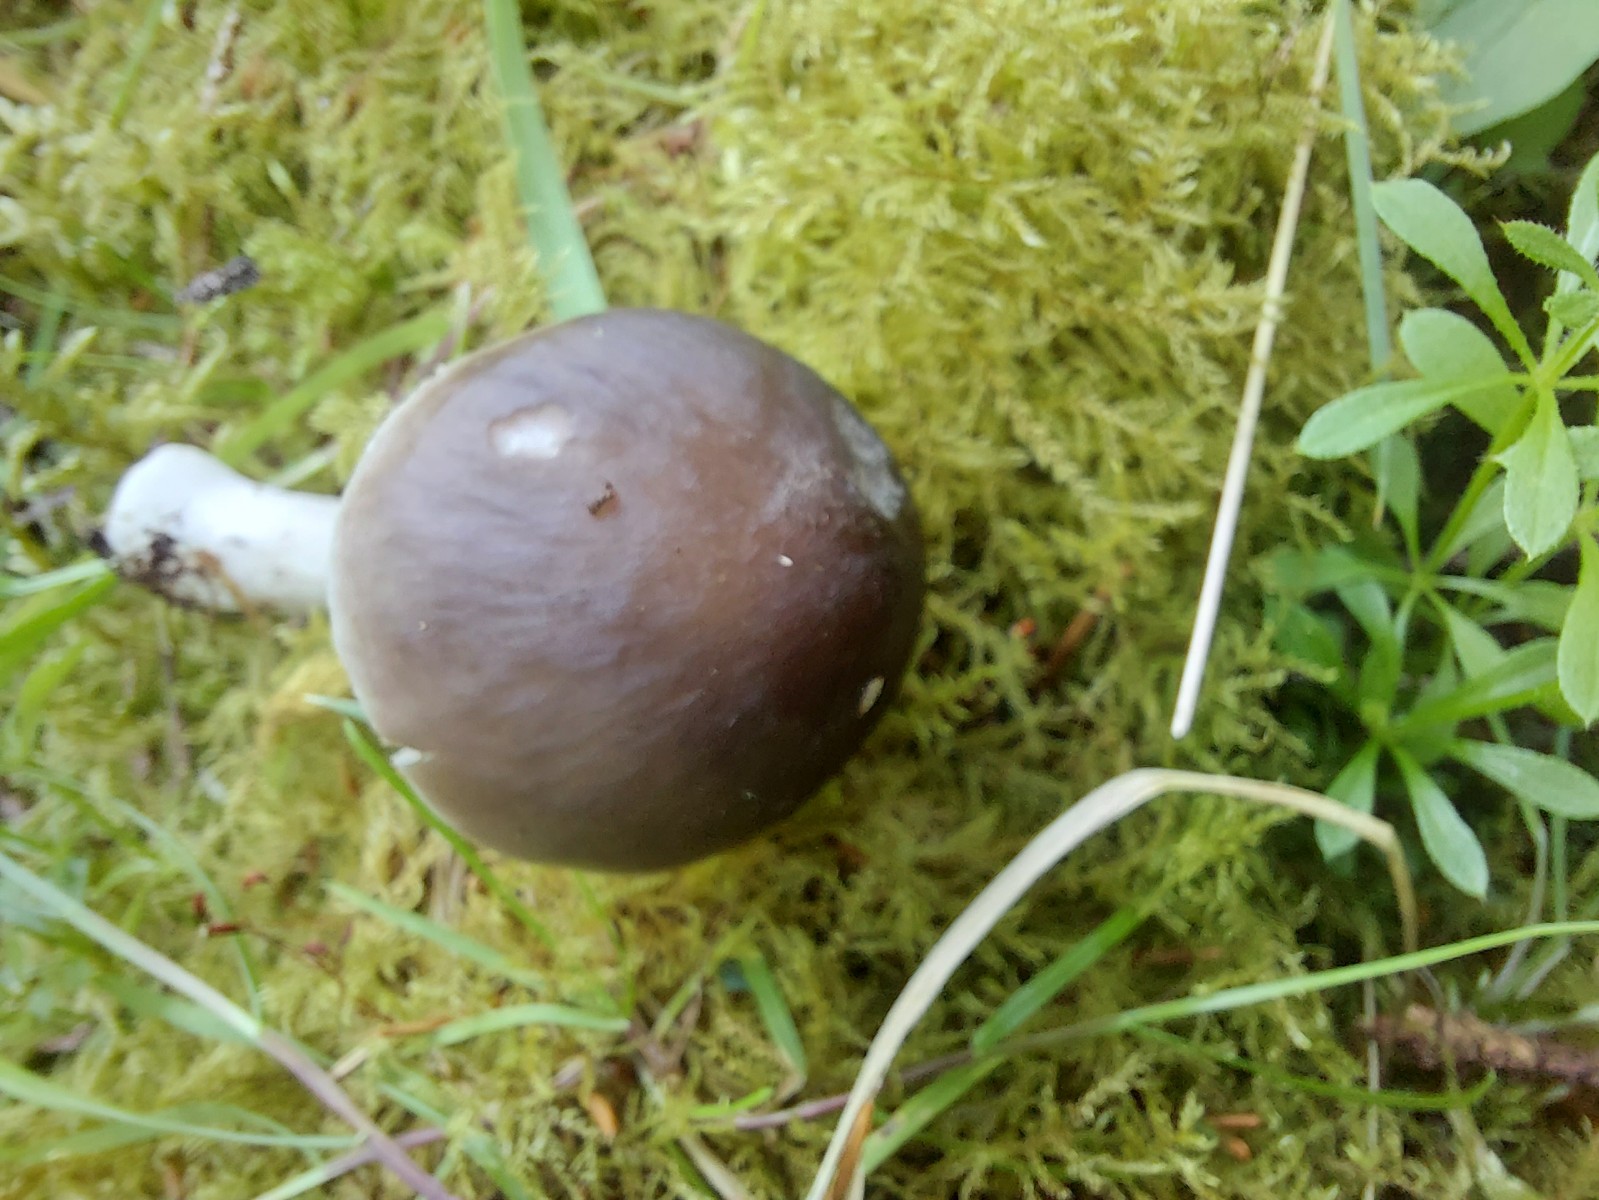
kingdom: Fungi
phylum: Basidiomycota
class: Agaricomycetes
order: Agaricales
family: Pluteaceae
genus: Pluteus
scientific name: Pluteus cervinus
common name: sodfarvet skærmhat
